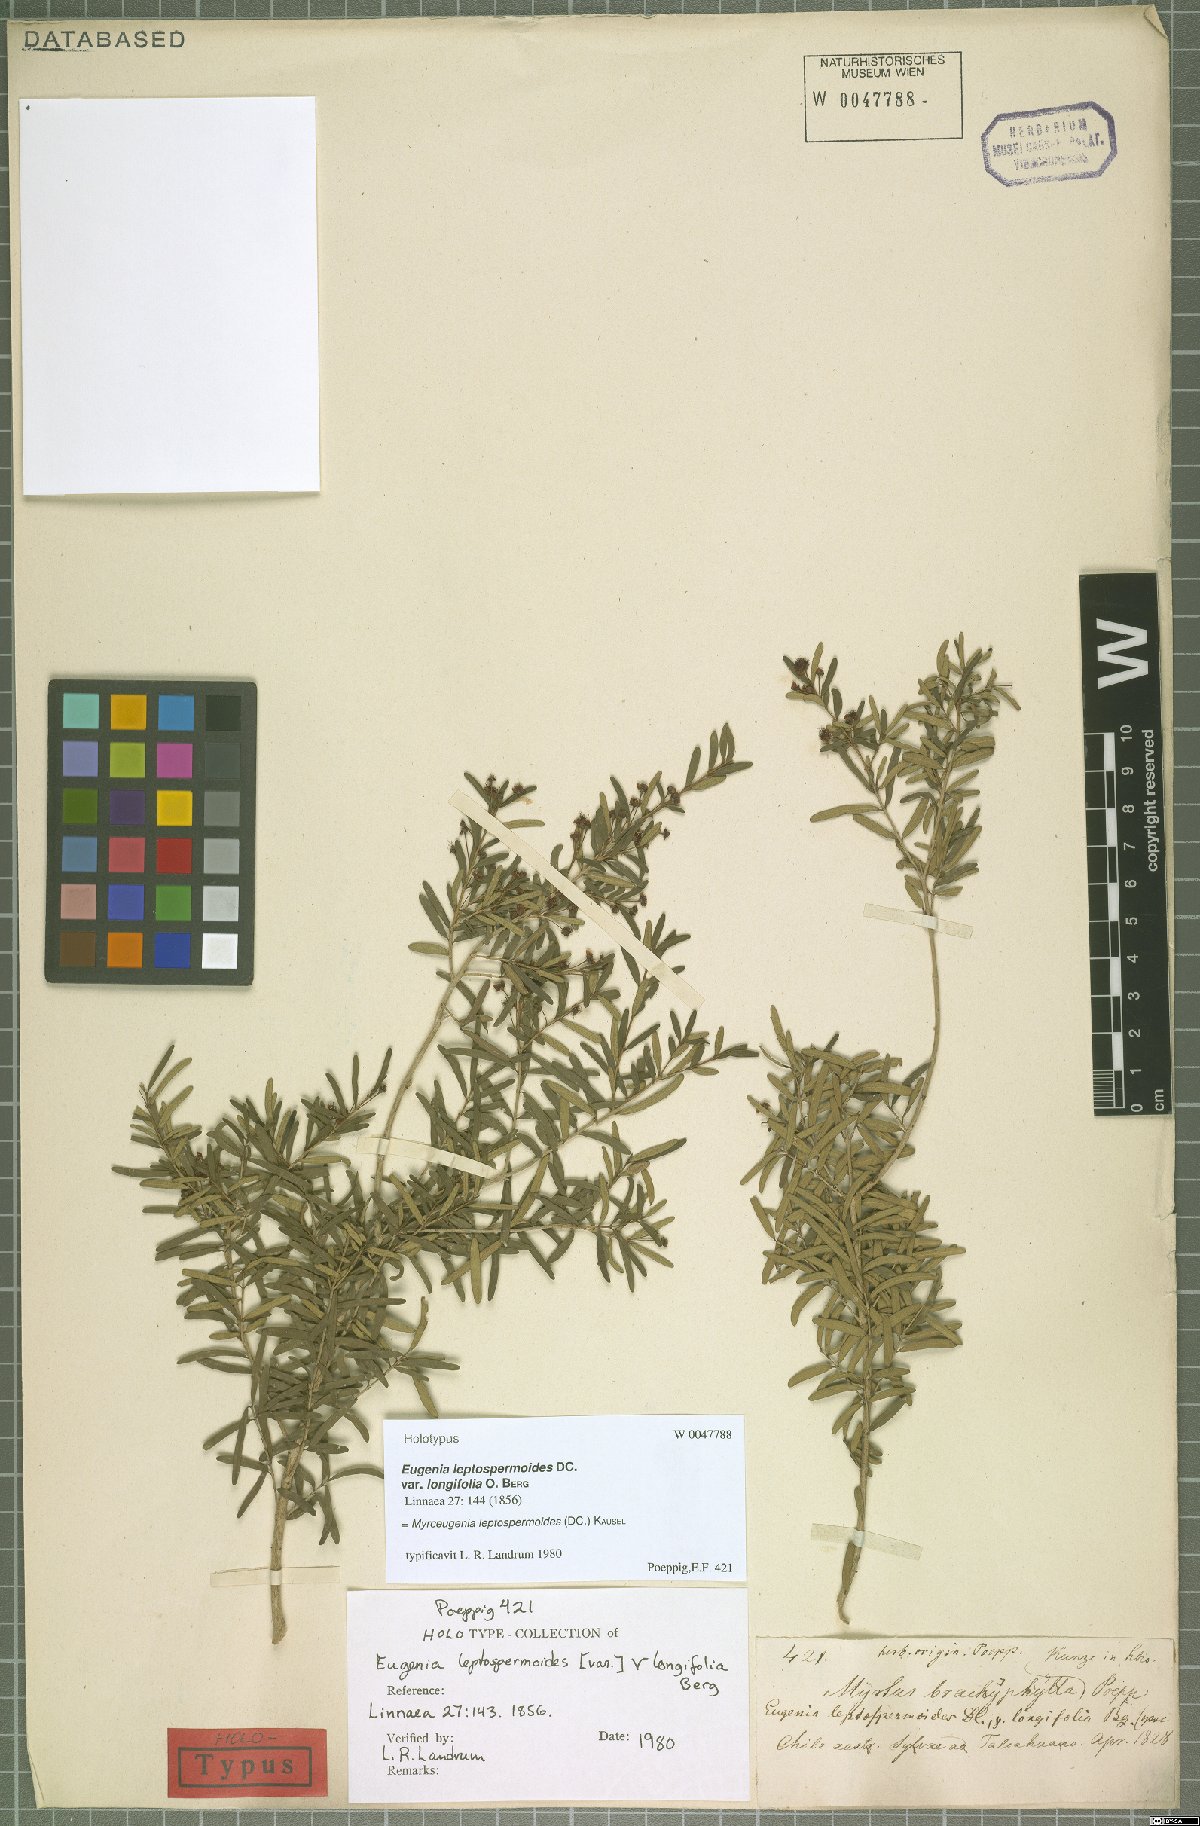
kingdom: Plantae
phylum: Tracheophyta
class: Magnoliopsida
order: Myrtales
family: Myrtaceae
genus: Myrceugenia
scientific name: Myrceugenia leptospermioides
